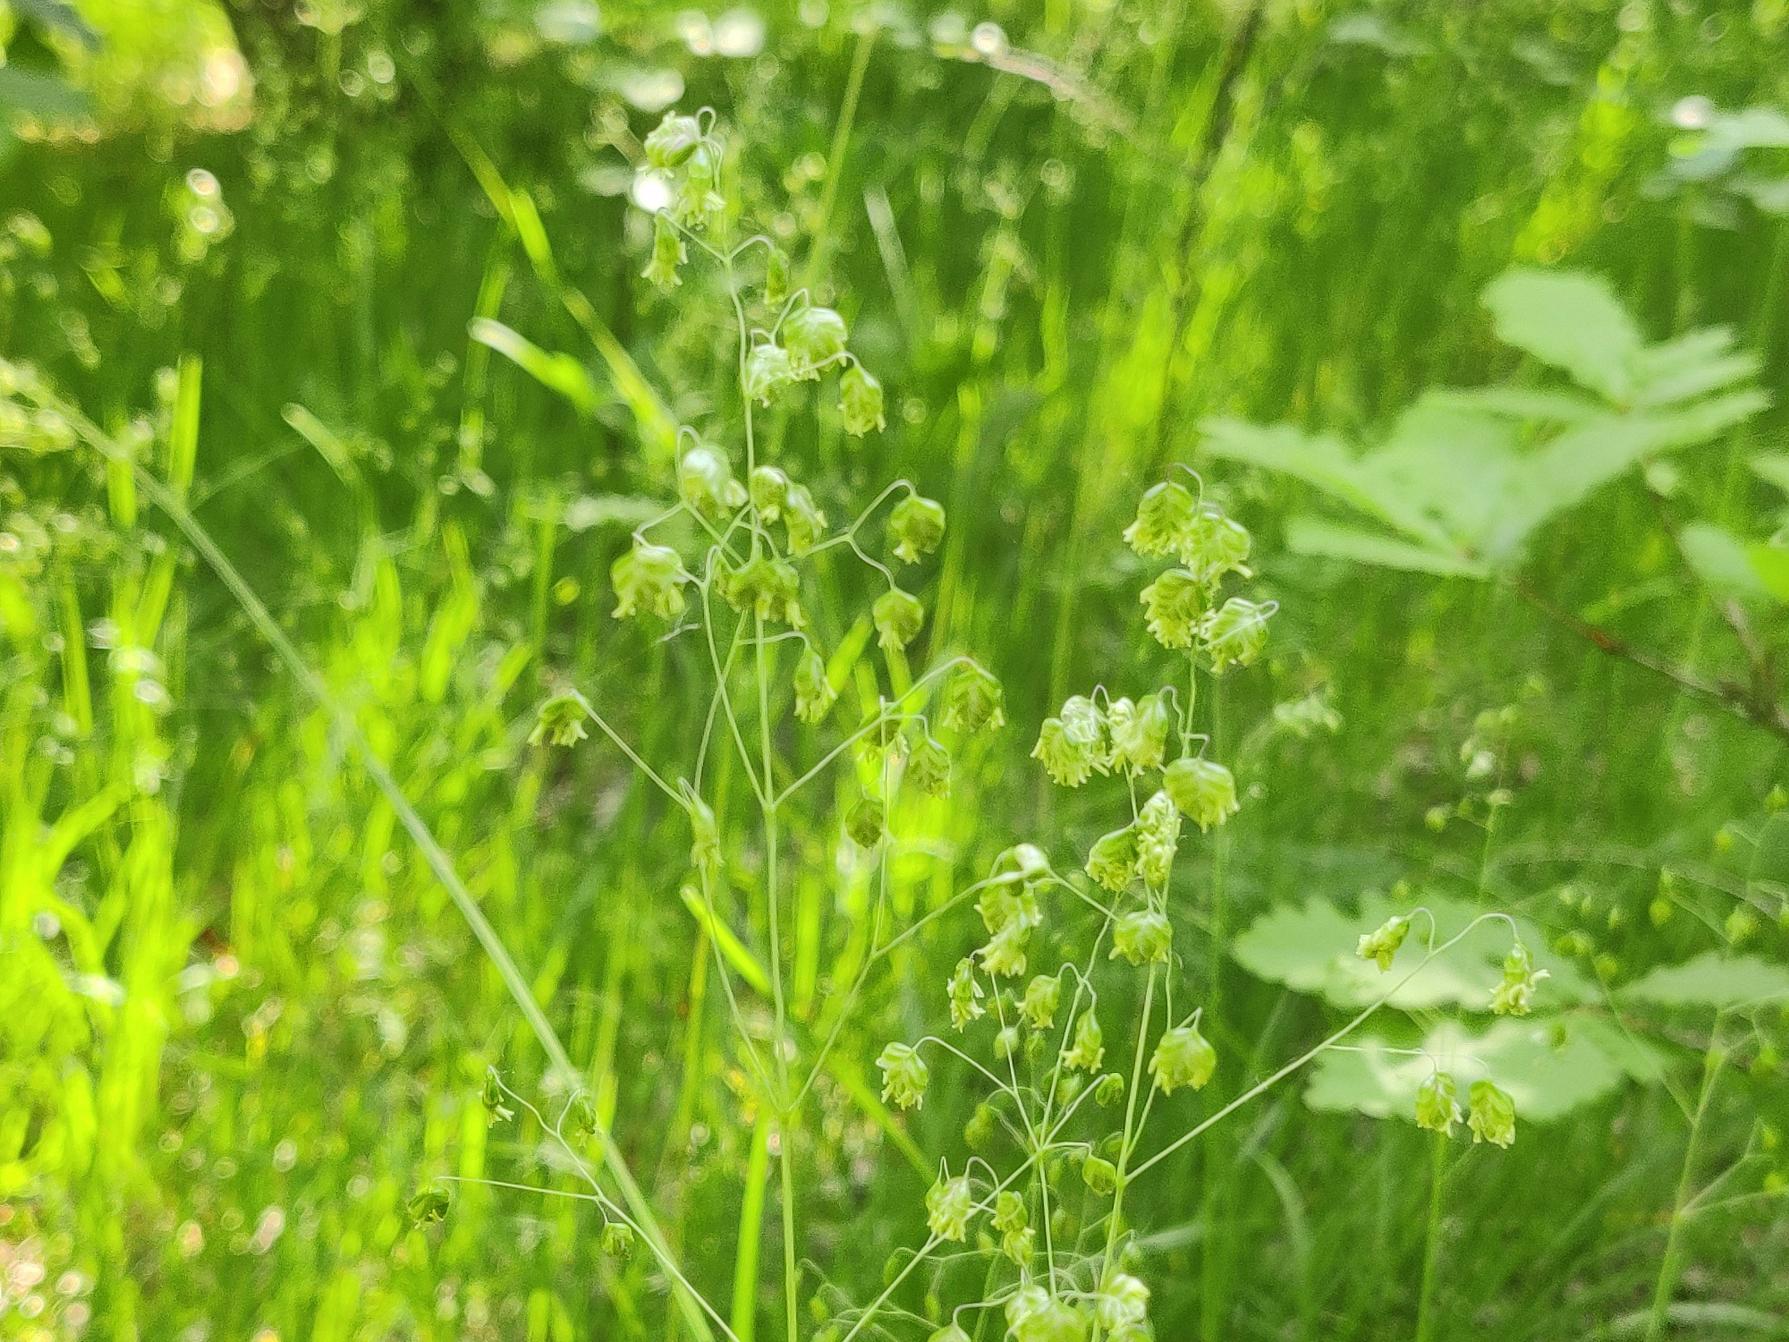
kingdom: Plantae
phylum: Tracheophyta
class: Liliopsida
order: Poales
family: Poaceae
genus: Briza
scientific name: Briza media
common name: Hjertegræs
